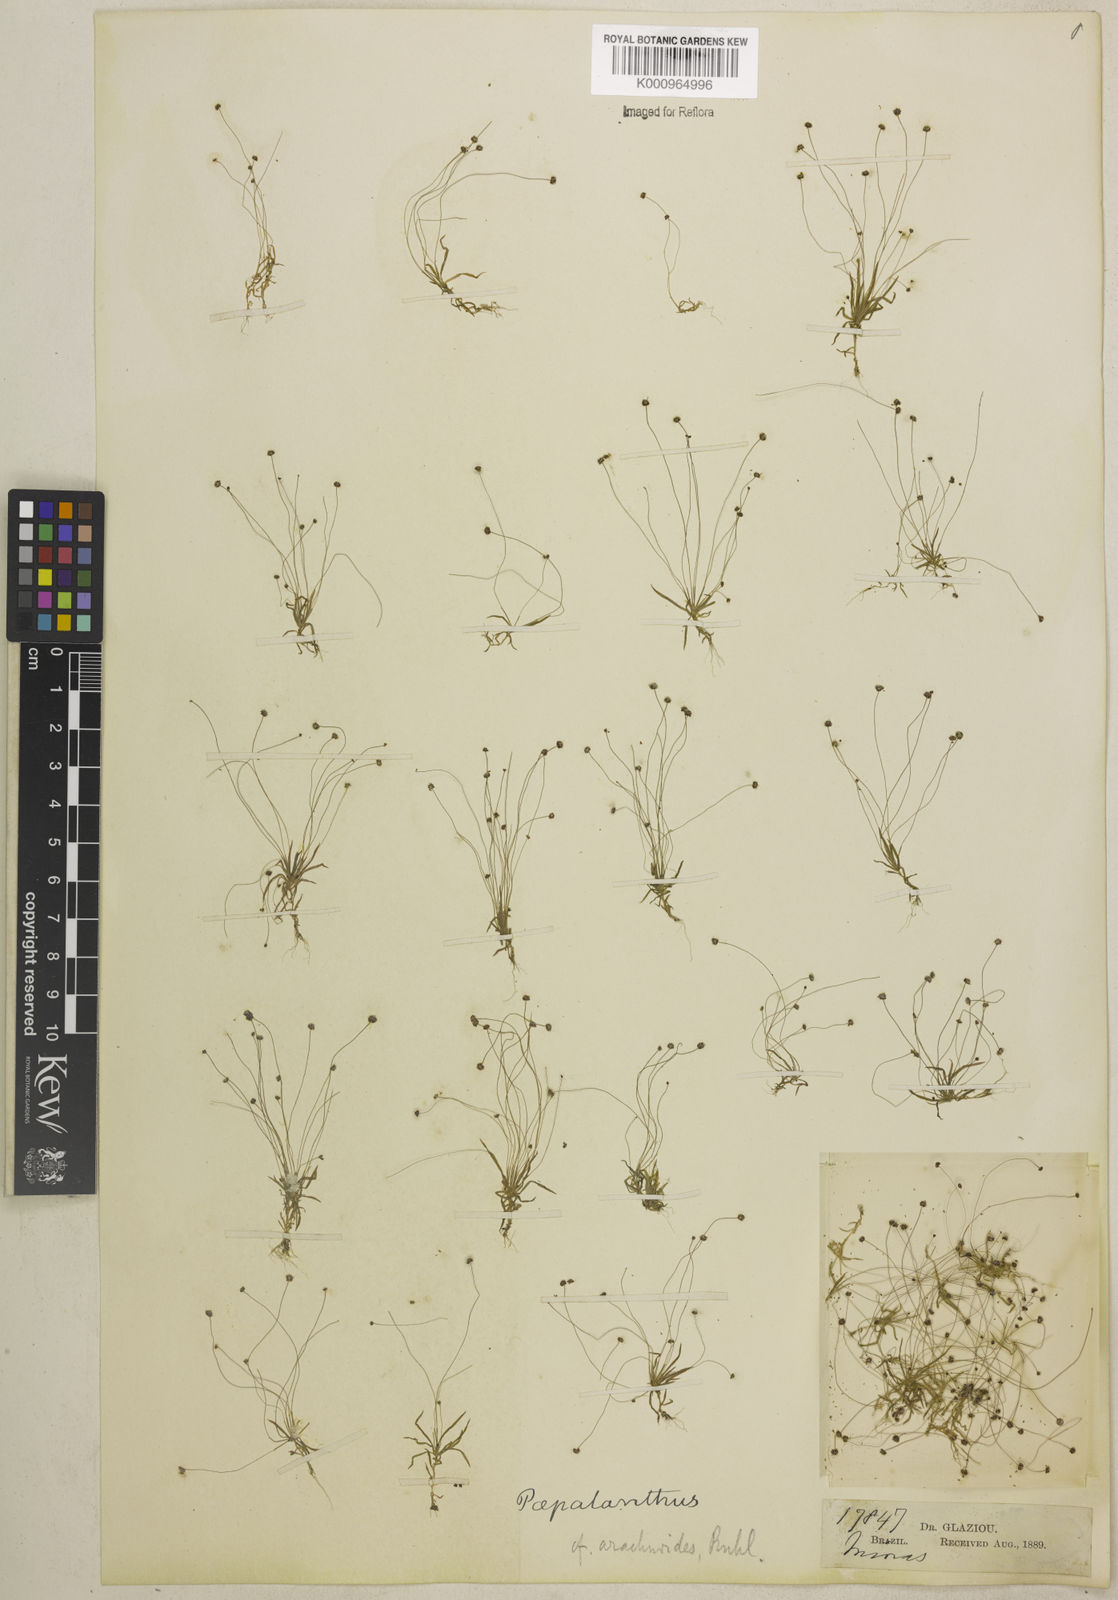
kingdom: Plantae
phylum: Tracheophyta
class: Liliopsida
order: Poales
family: Eriocaulaceae
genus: Paepalanthus
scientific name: Paepalanthus manicatus
